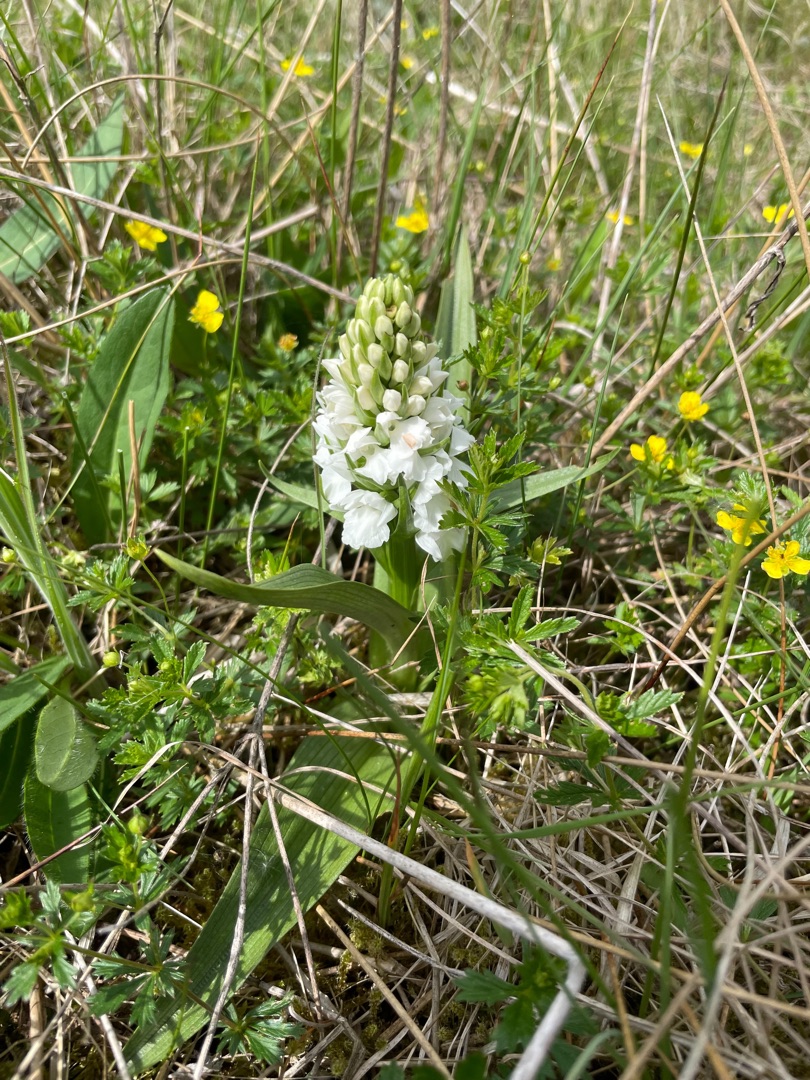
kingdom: Plantae
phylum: Tracheophyta
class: Liliopsida
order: Asparagales
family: Orchidaceae
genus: Dactylorhiza
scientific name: Dactylorhiza majalis
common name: Thy-gøgeurt
